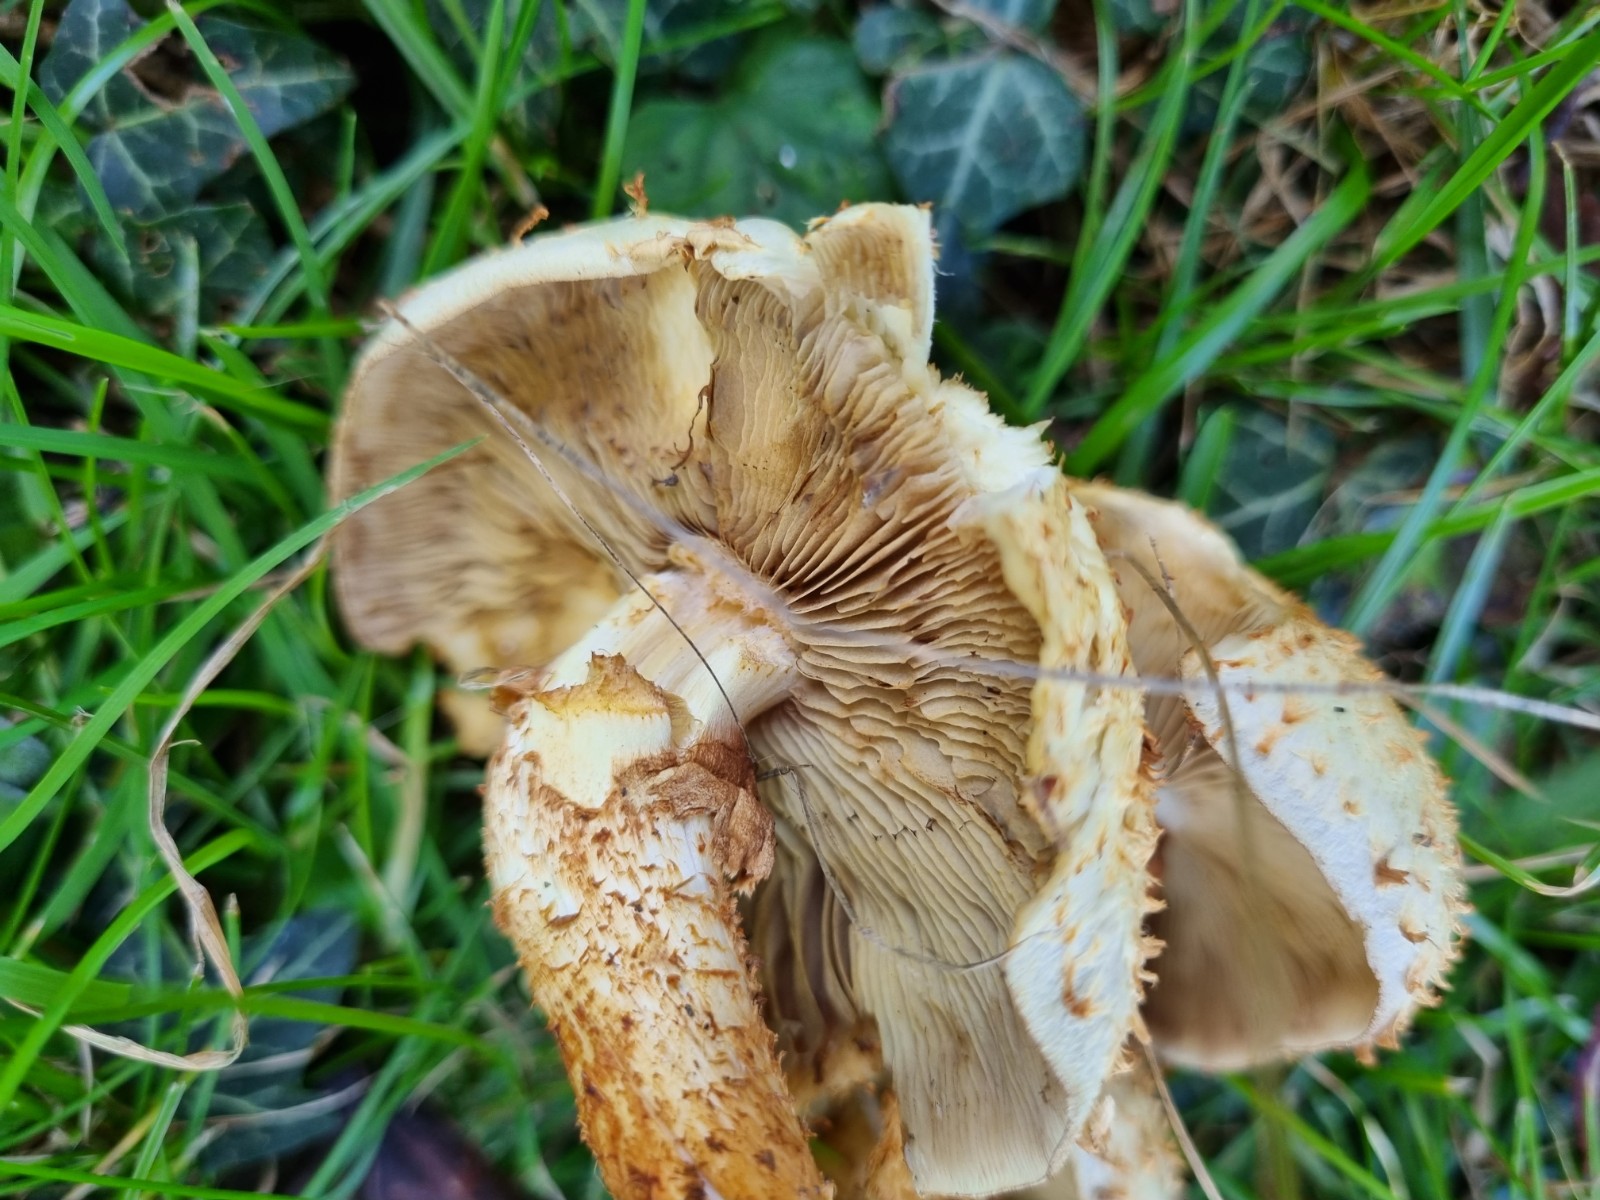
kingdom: Fungi
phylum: Basidiomycota
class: Agaricomycetes
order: Agaricales
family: Strophariaceae
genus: Pholiota
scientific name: Pholiota squarrosa
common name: krumskællet skælhat
